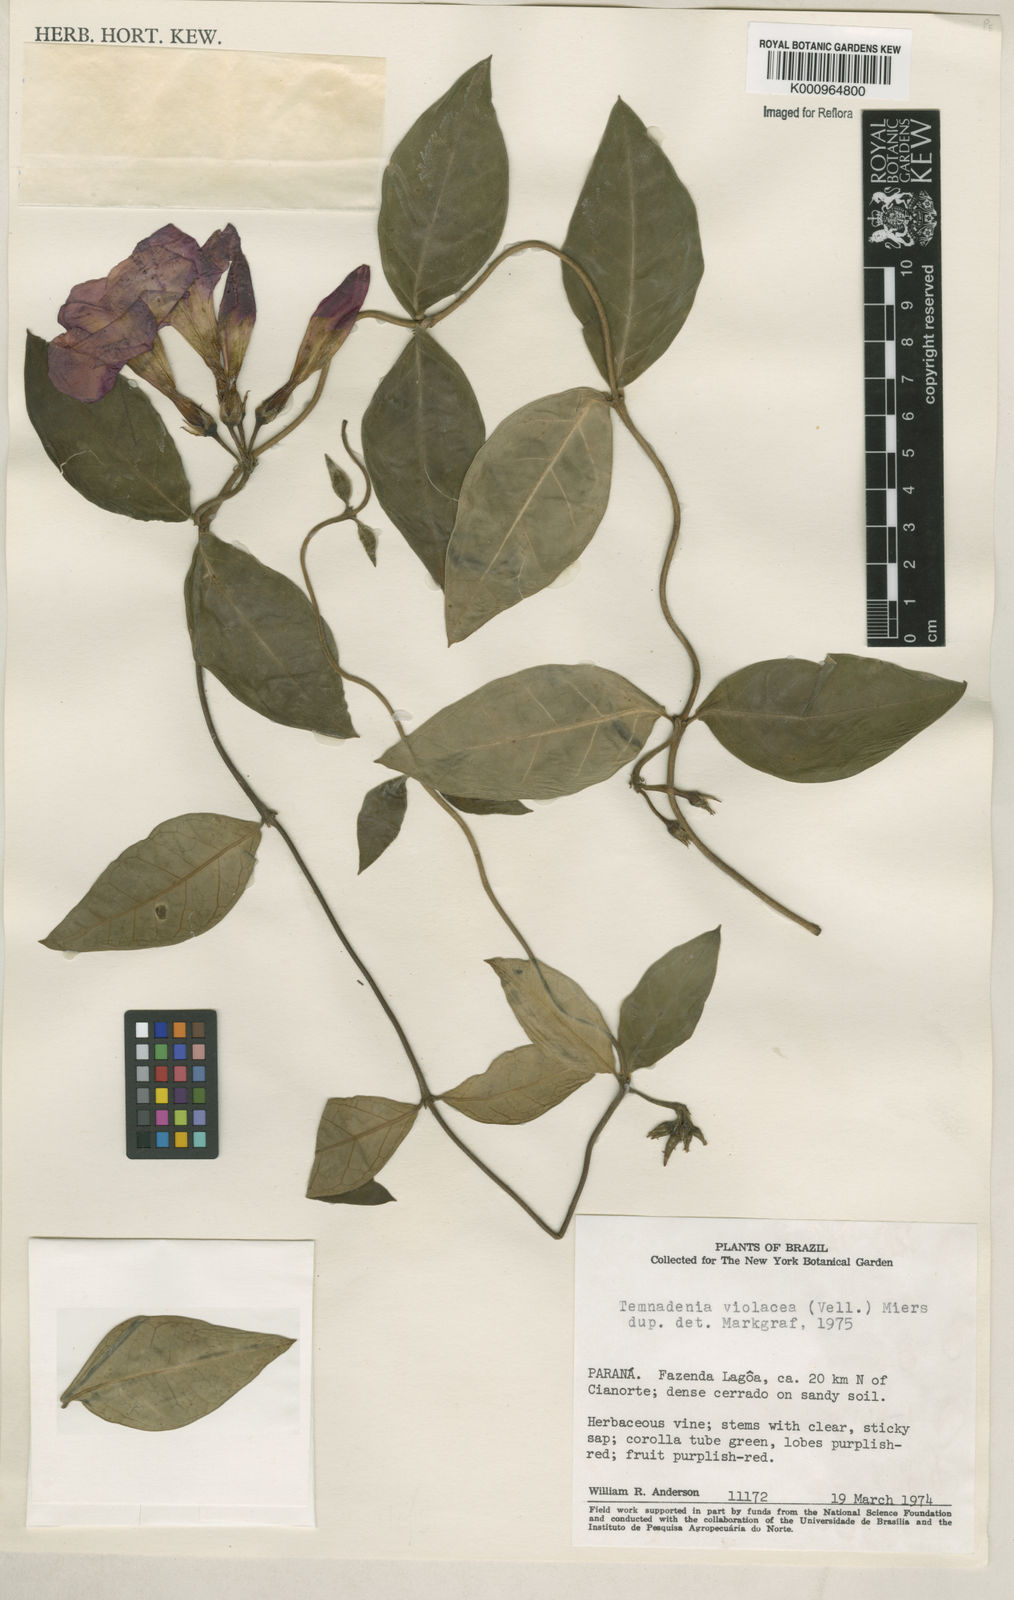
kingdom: Plantae
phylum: Tracheophyta
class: Magnoliopsida
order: Gentianales
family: Apocynaceae
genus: Temnadenia
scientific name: Temnadenia violacea
